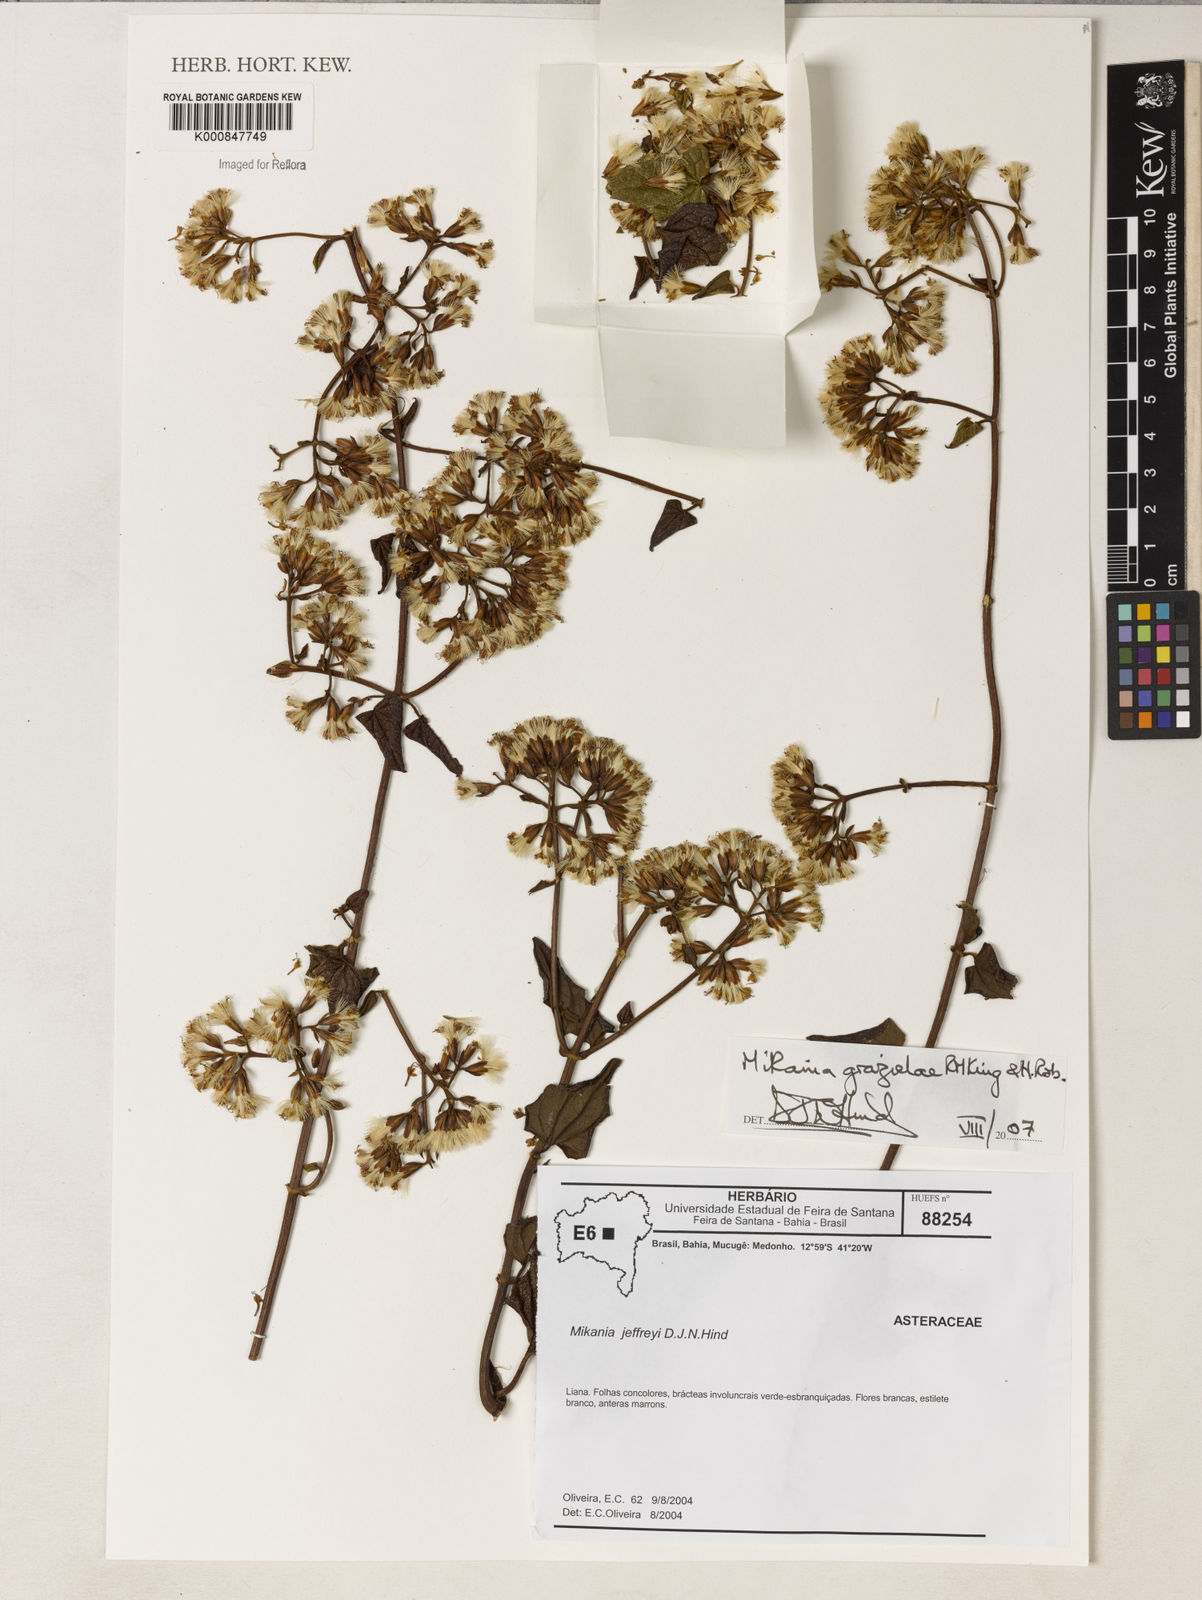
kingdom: Plantae
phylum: Tracheophyta
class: Magnoliopsida
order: Asterales
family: Asteraceae
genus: Mikania
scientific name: Mikania grazielae
